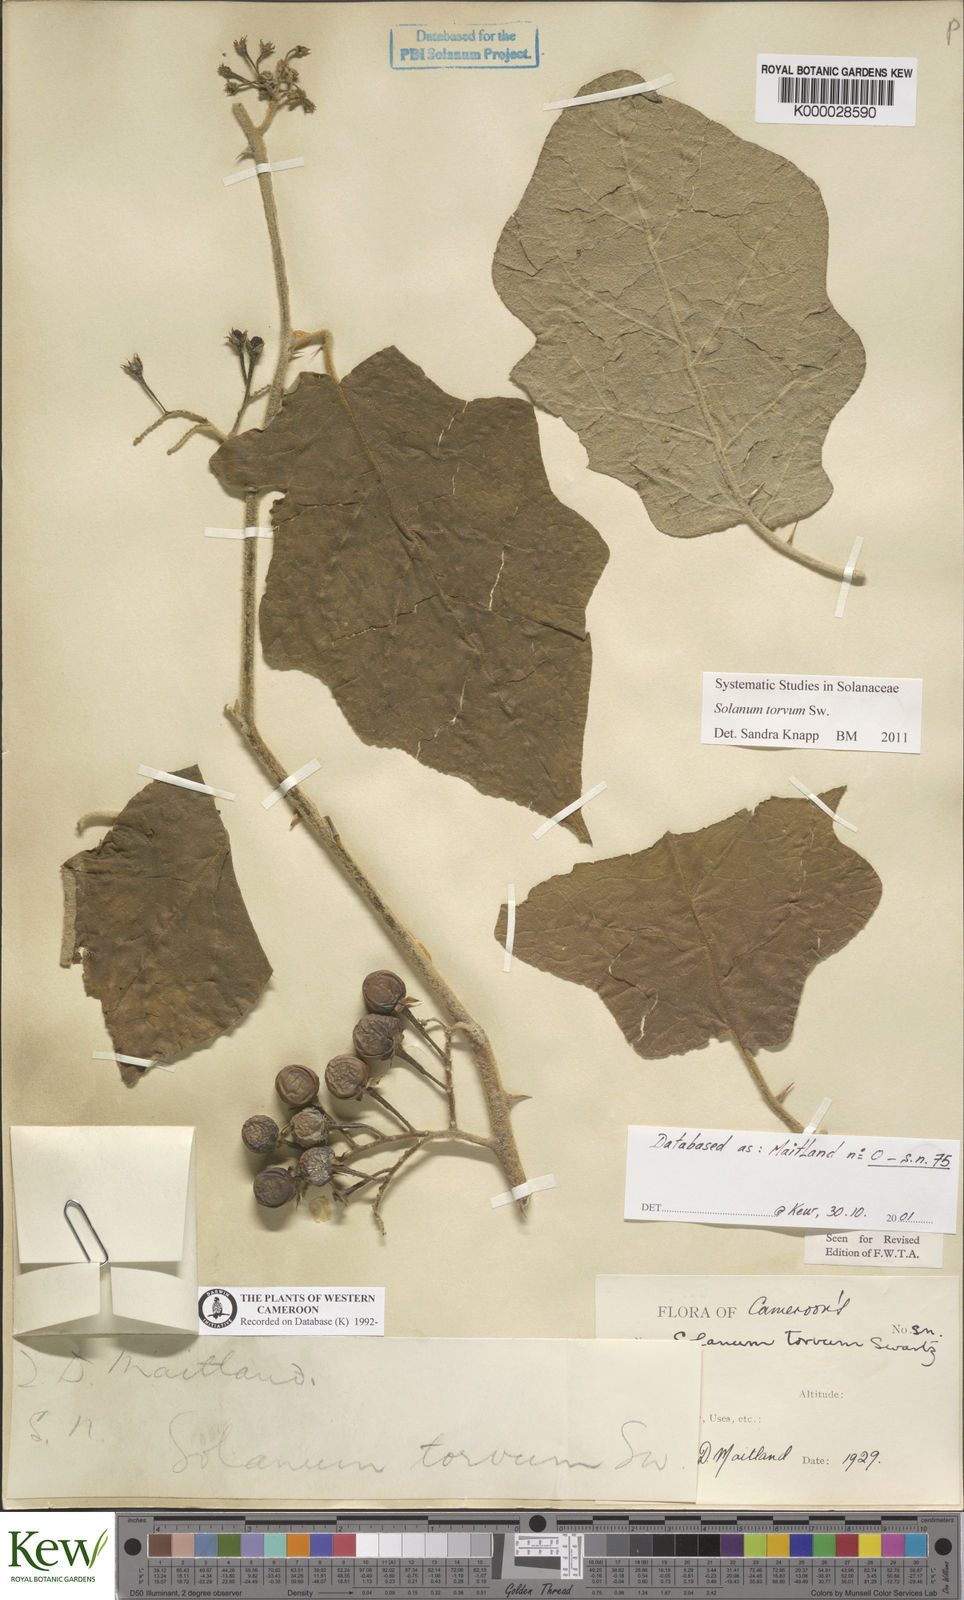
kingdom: Plantae
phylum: Tracheophyta
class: Magnoliopsida
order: Solanales
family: Solanaceae
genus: Solanum
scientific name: Solanum torvum
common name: Turkey berry
